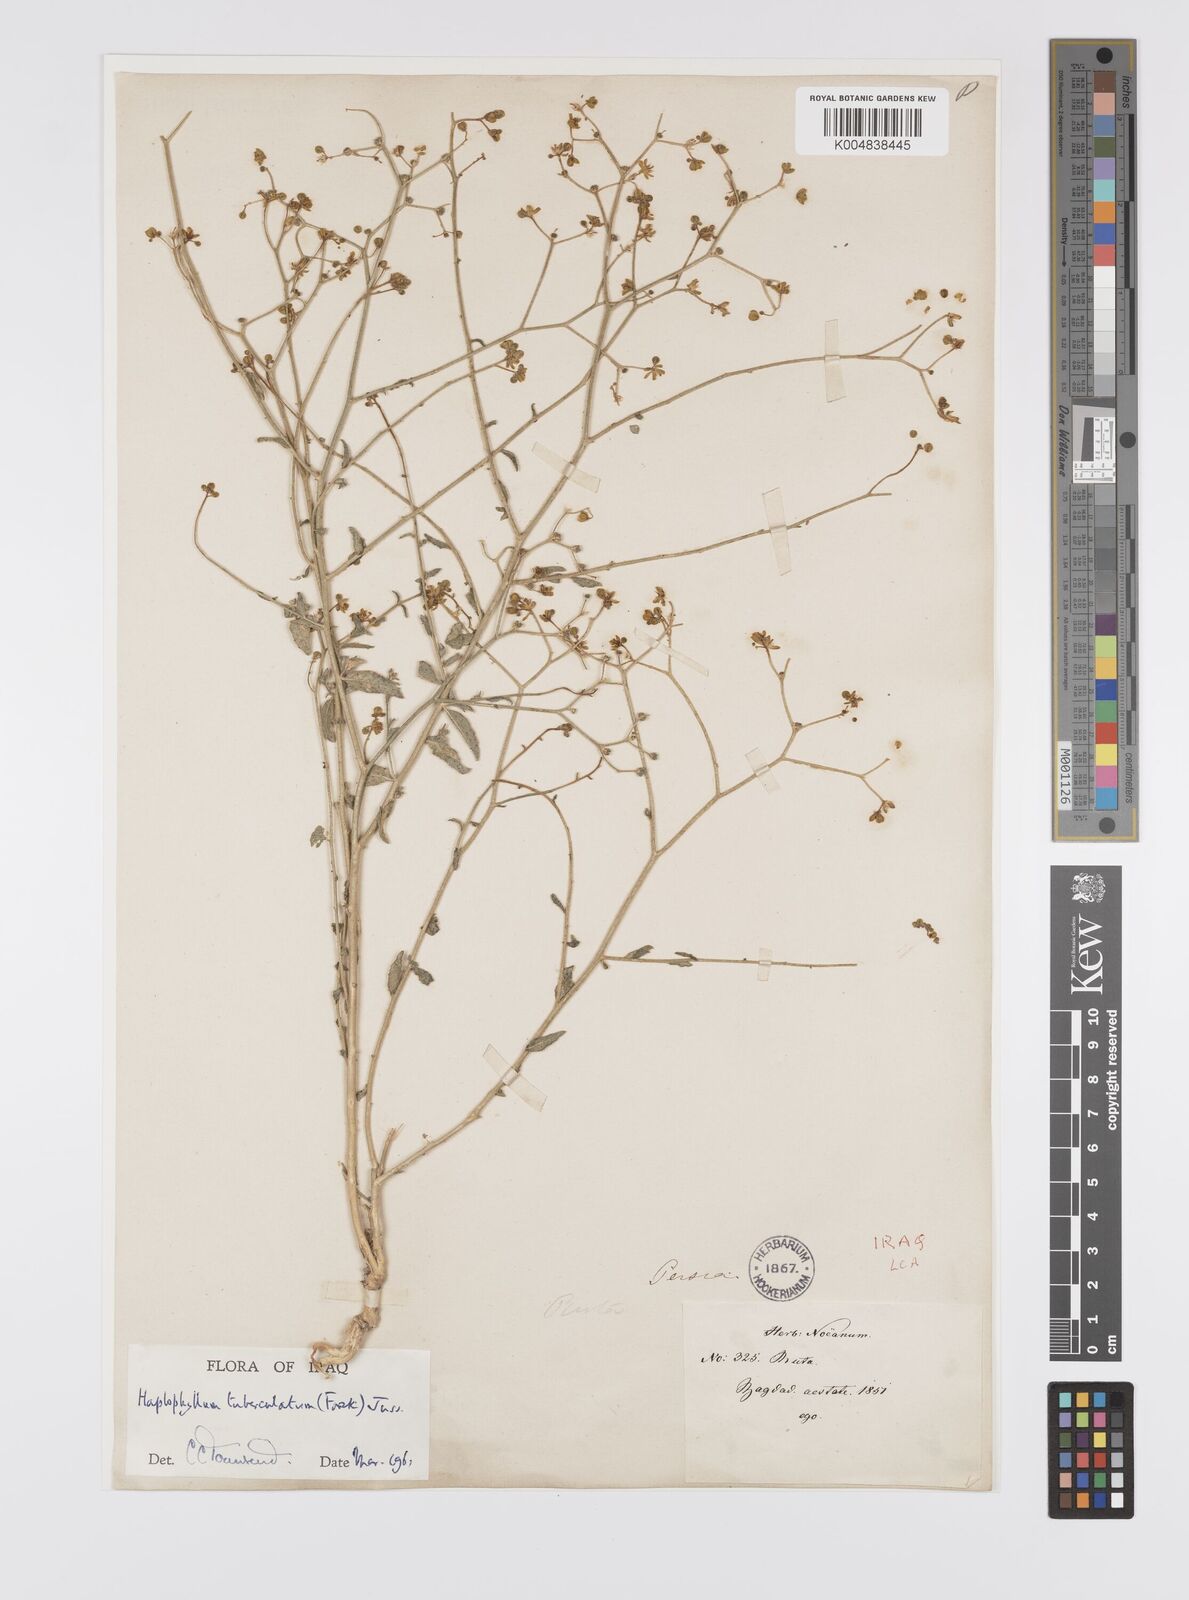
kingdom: Plantae
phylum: Tracheophyta
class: Magnoliopsida
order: Sapindales
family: Rutaceae
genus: Haplophyllum
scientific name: Haplophyllum tuberculatum
